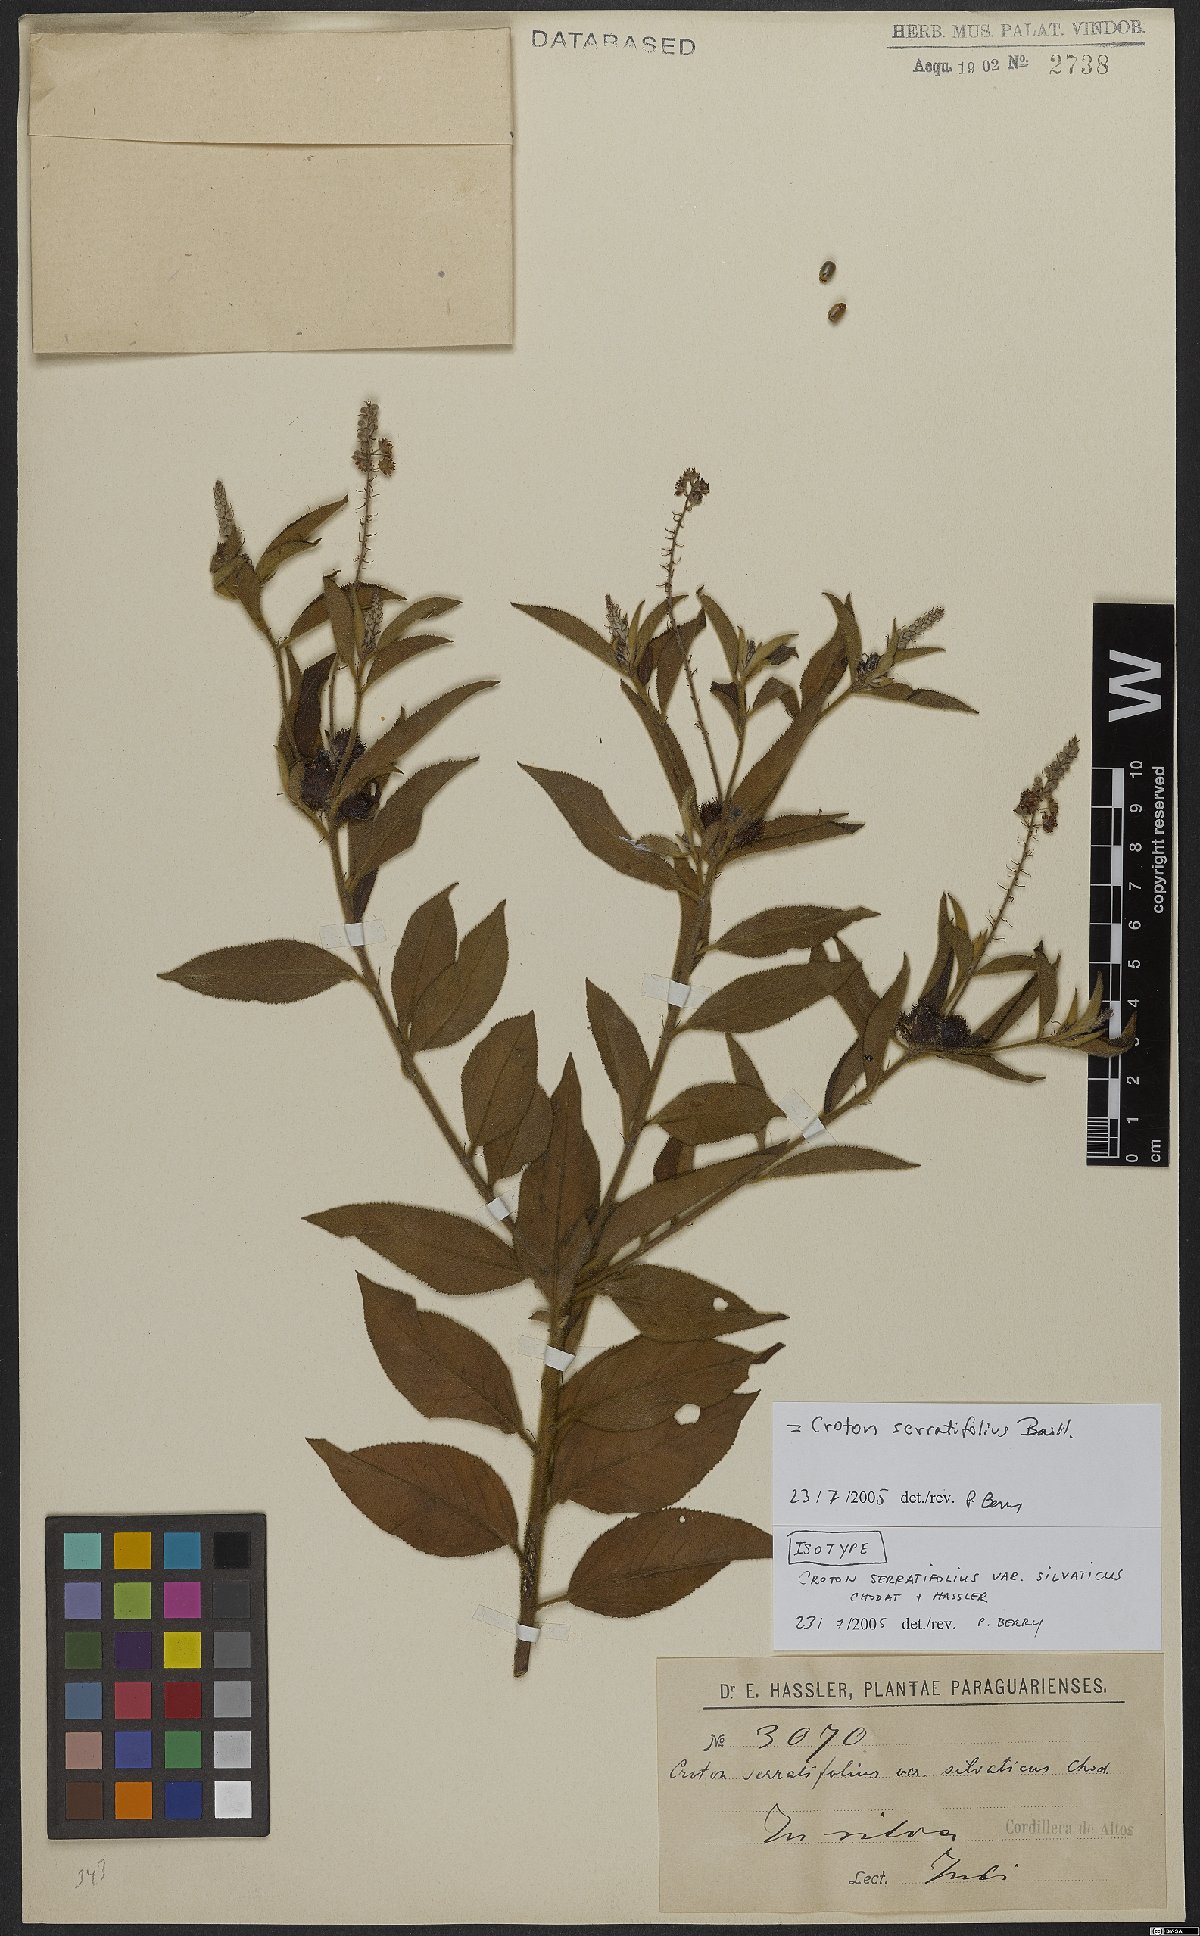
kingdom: Plantae
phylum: Tracheophyta
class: Magnoliopsida
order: Malpighiales
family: Euphorbiaceae
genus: Croton
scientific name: Croton serratifolius
